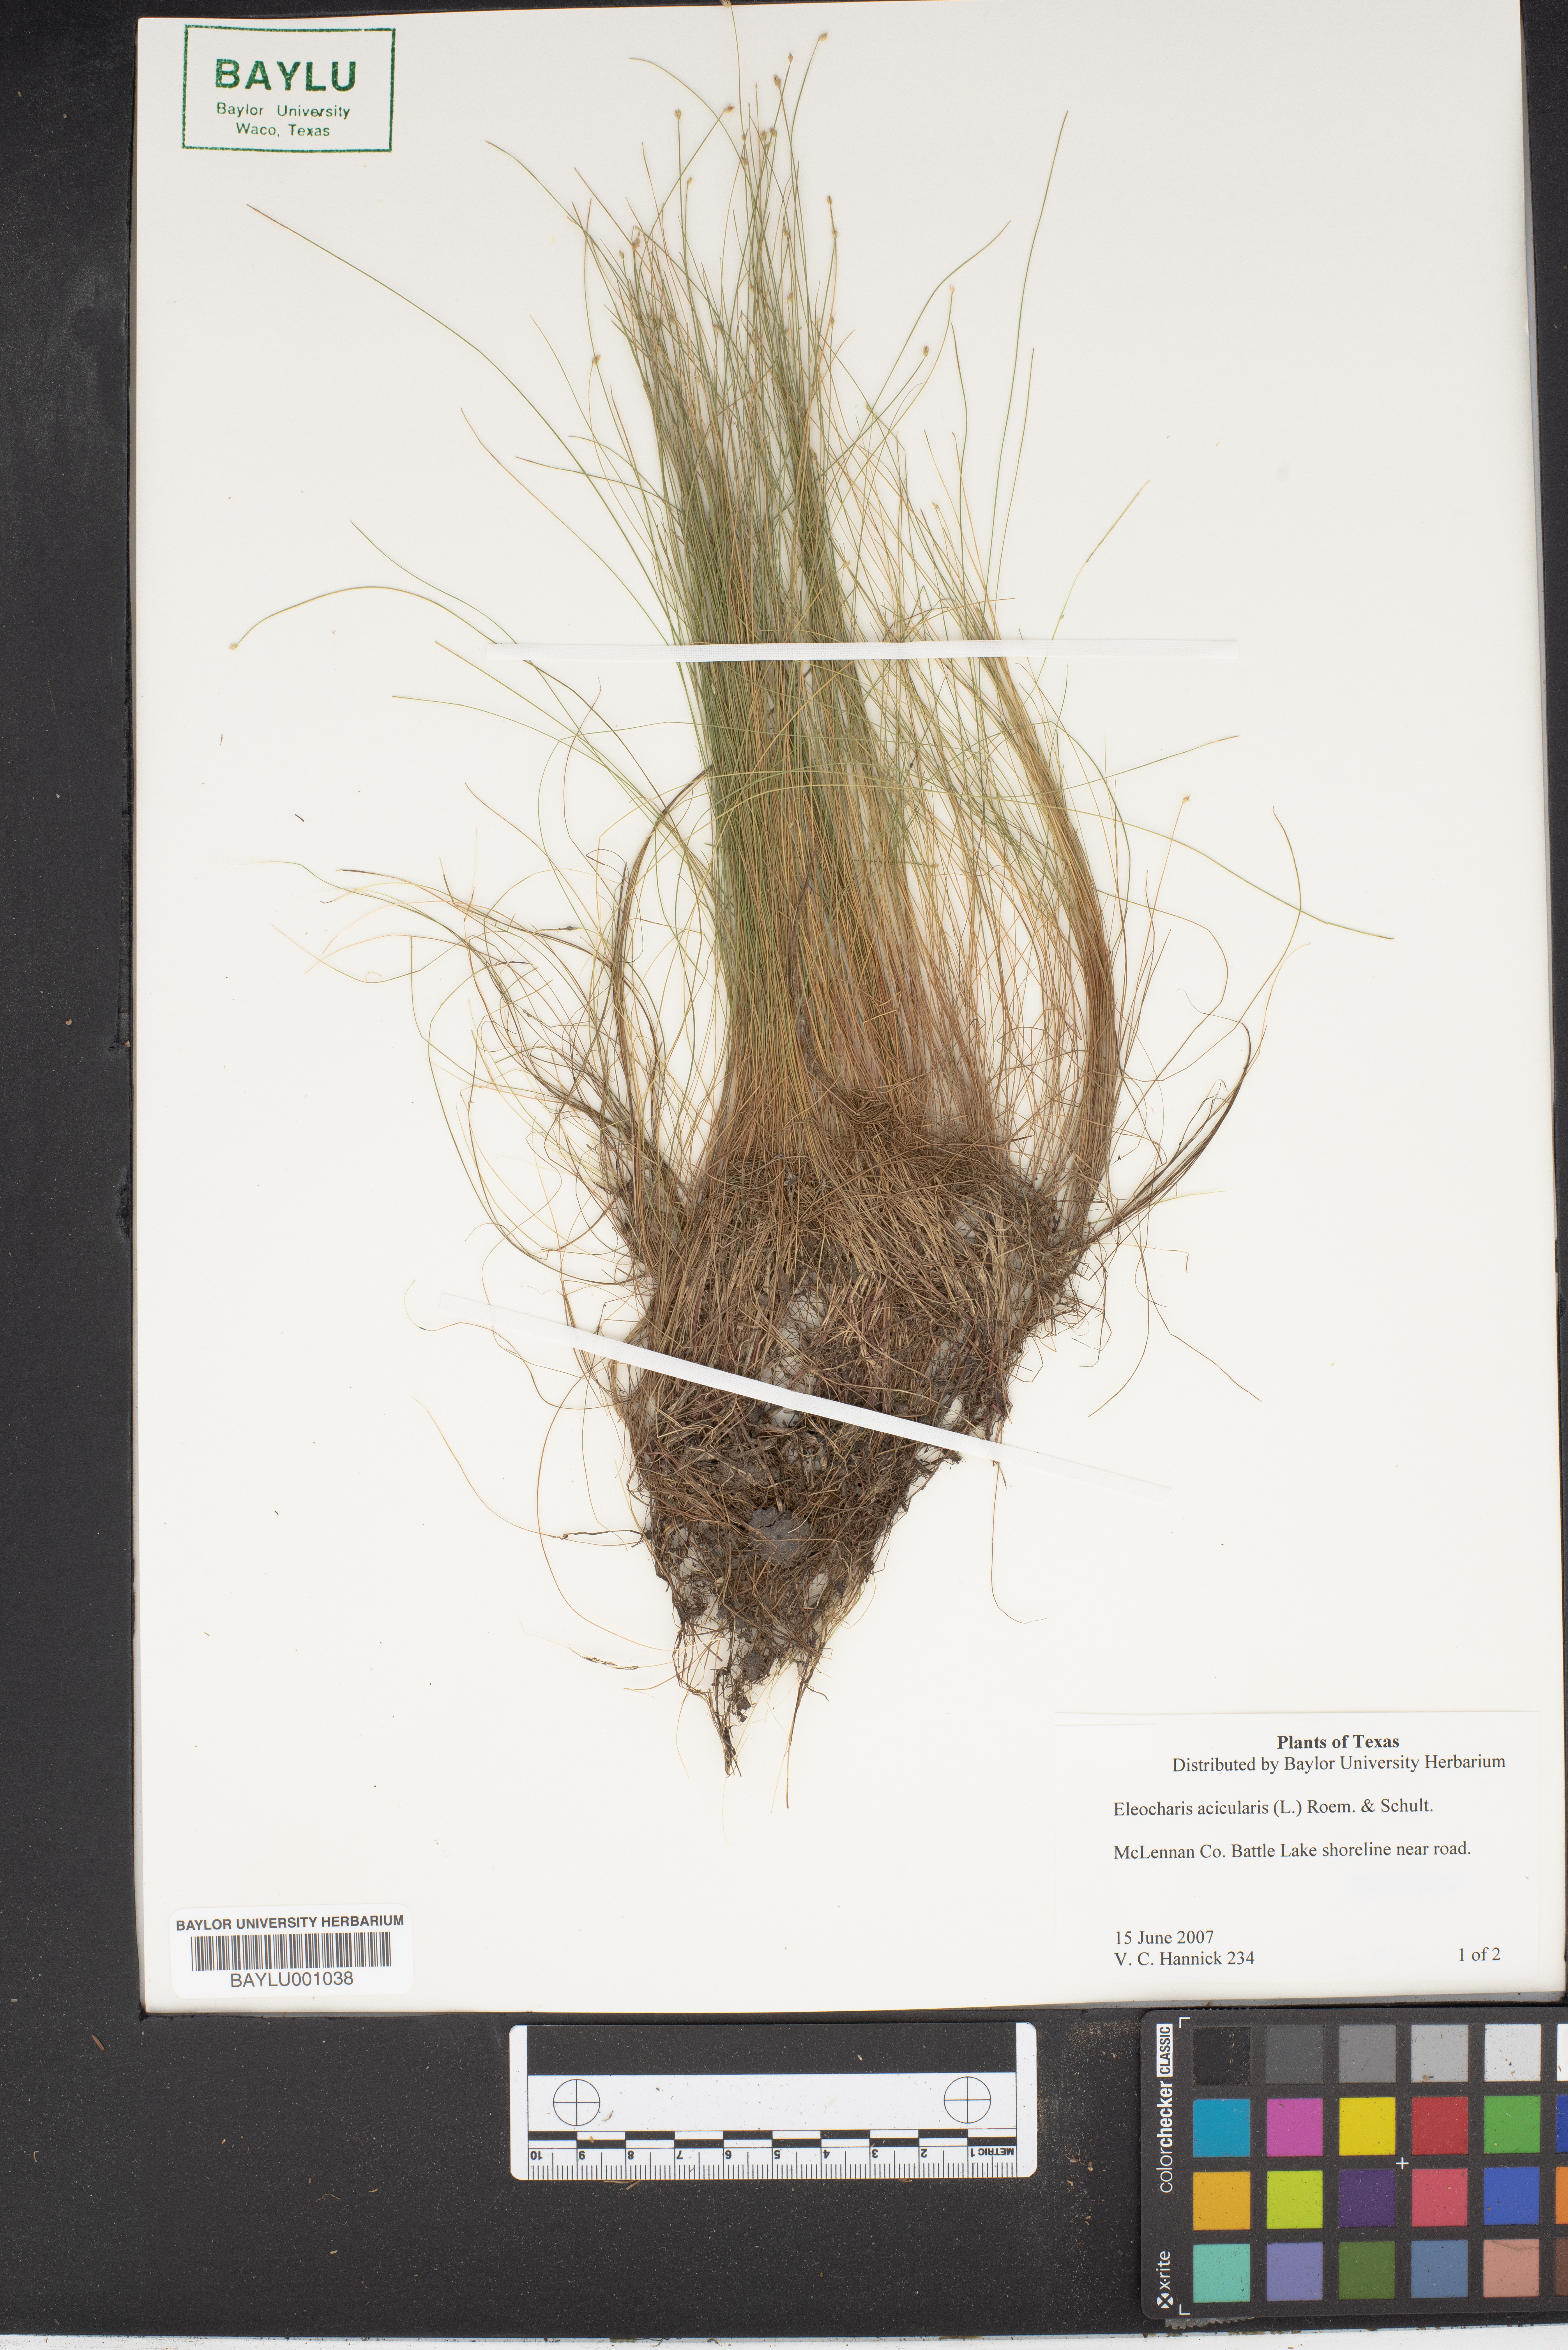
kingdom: Plantae
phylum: Tracheophyta
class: Liliopsida
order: Poales
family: Cyperaceae
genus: Eleocharis
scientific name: Eleocharis acicularis
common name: Needle spike-rush
